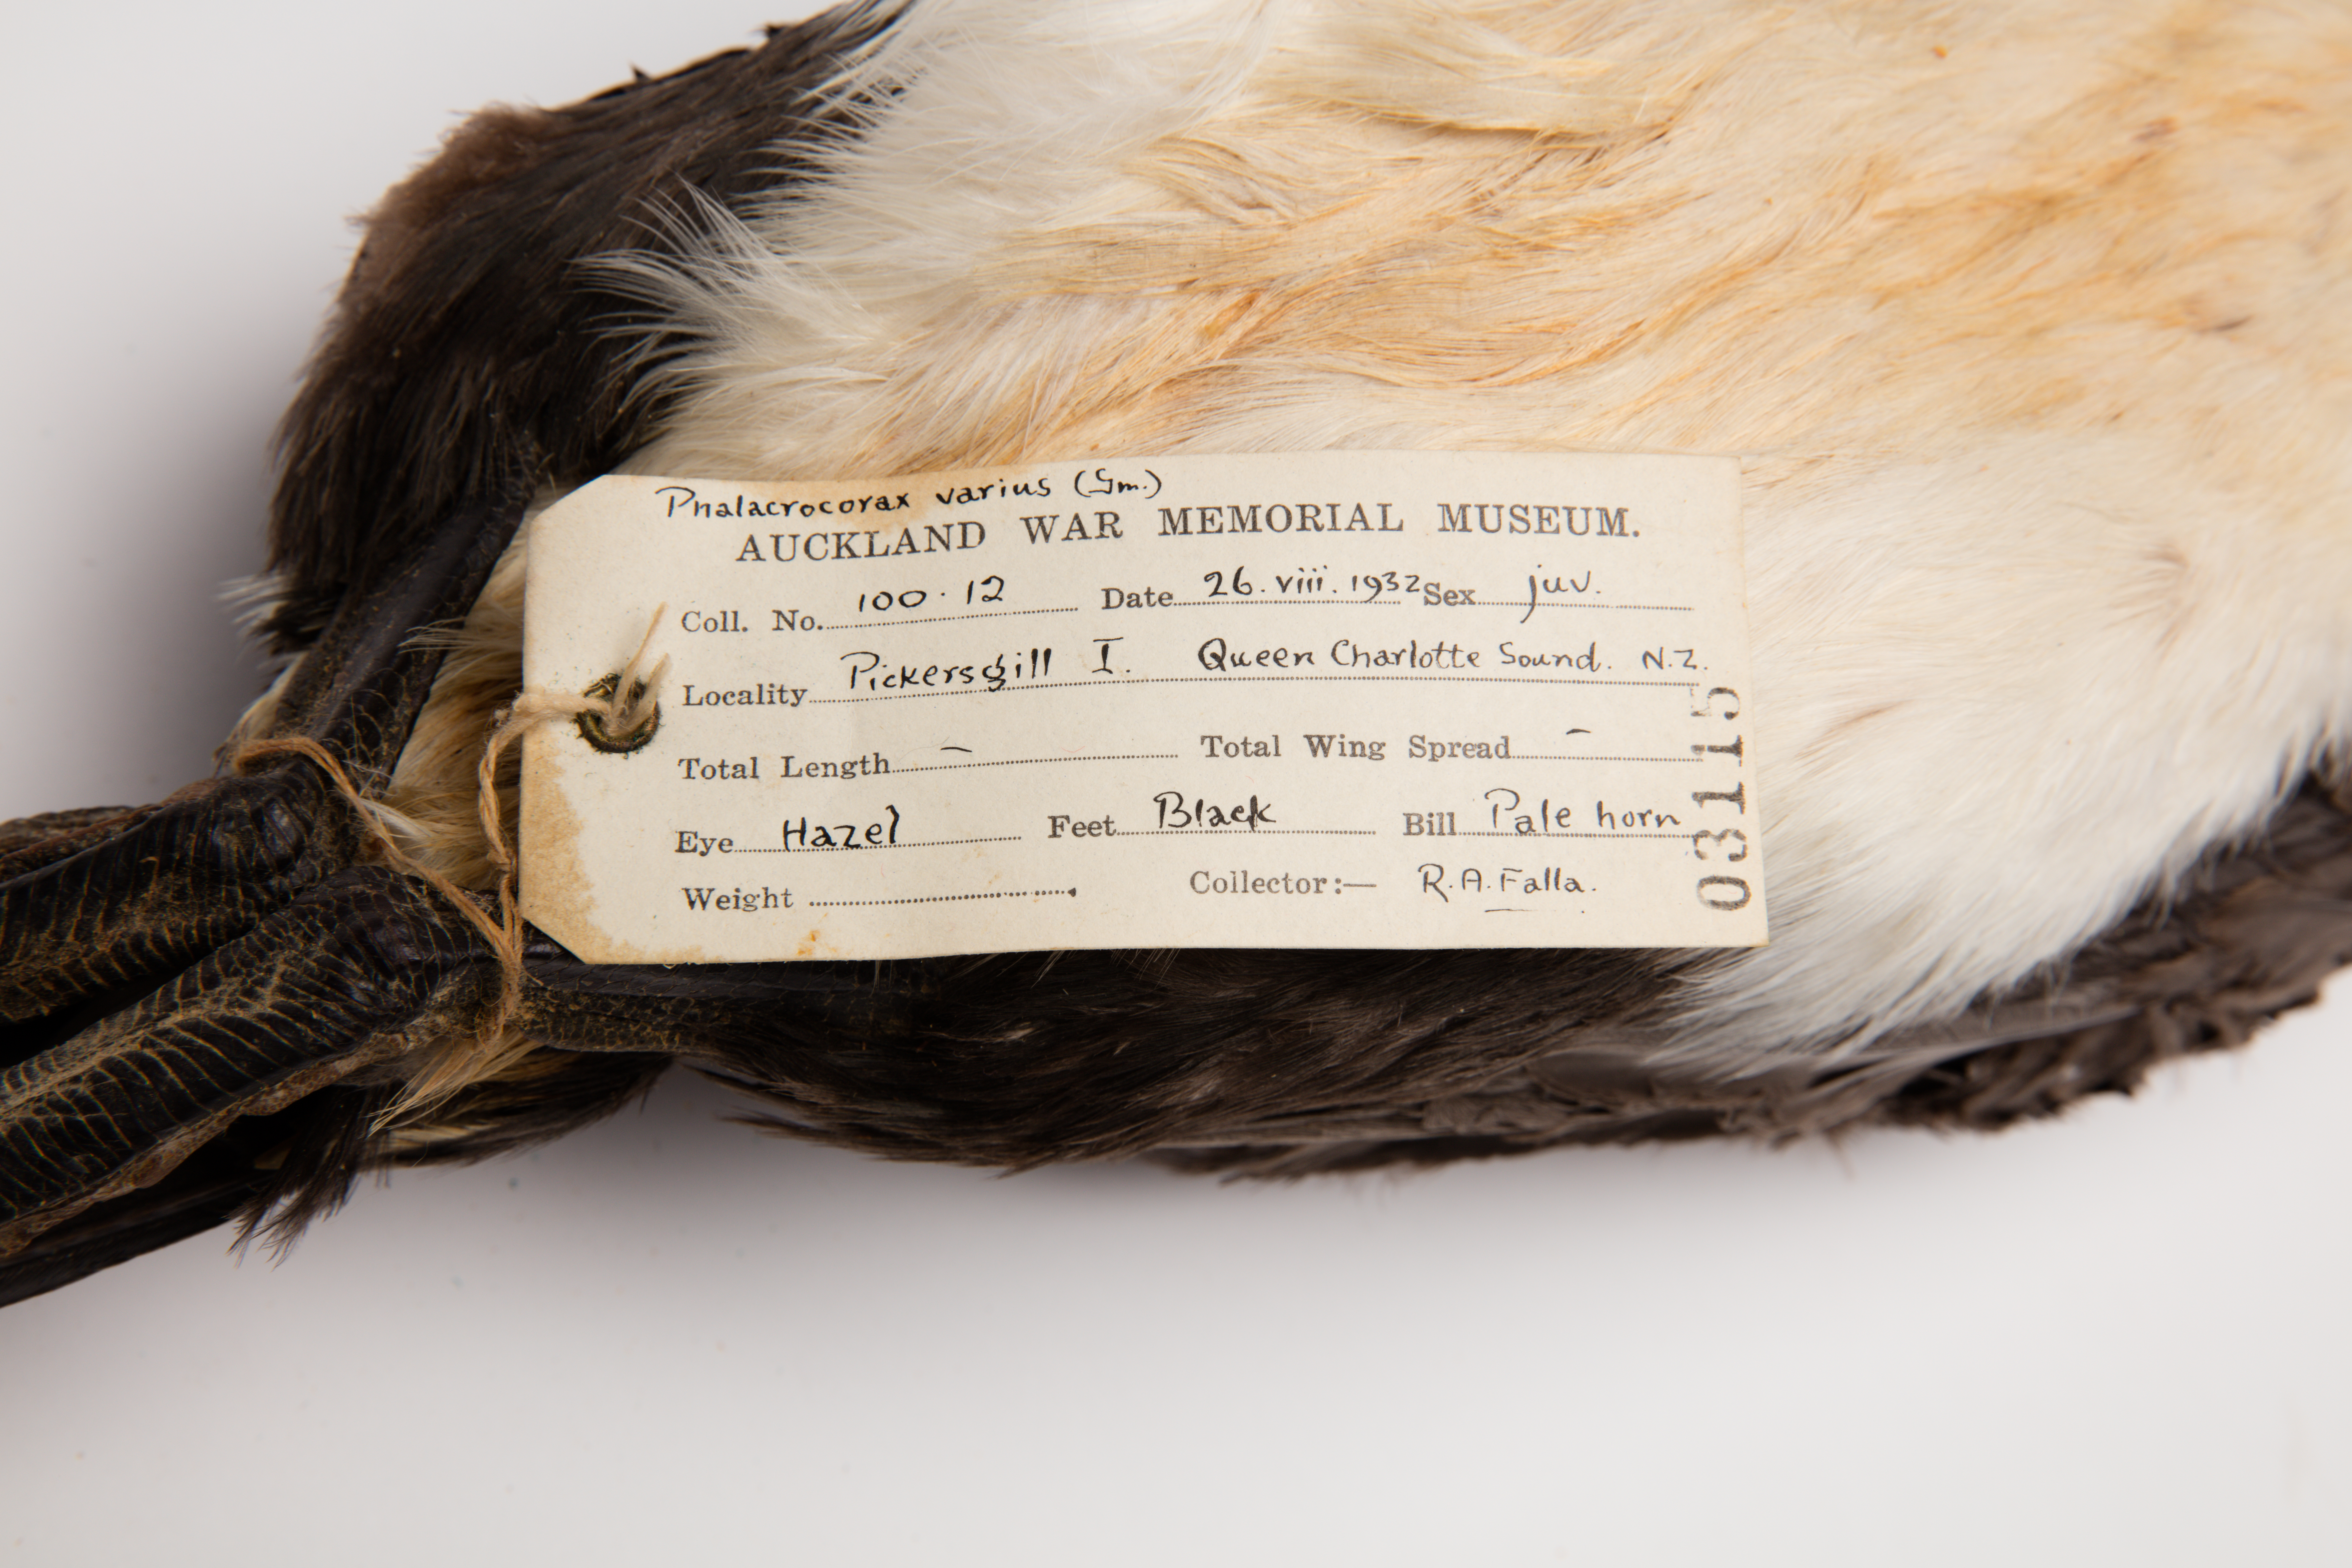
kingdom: Animalia
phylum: Chordata
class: Aves
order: Suliformes
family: Phalacrocoracidae
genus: Phalacrocorax
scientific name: Phalacrocorax varius
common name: Pied cormorant
